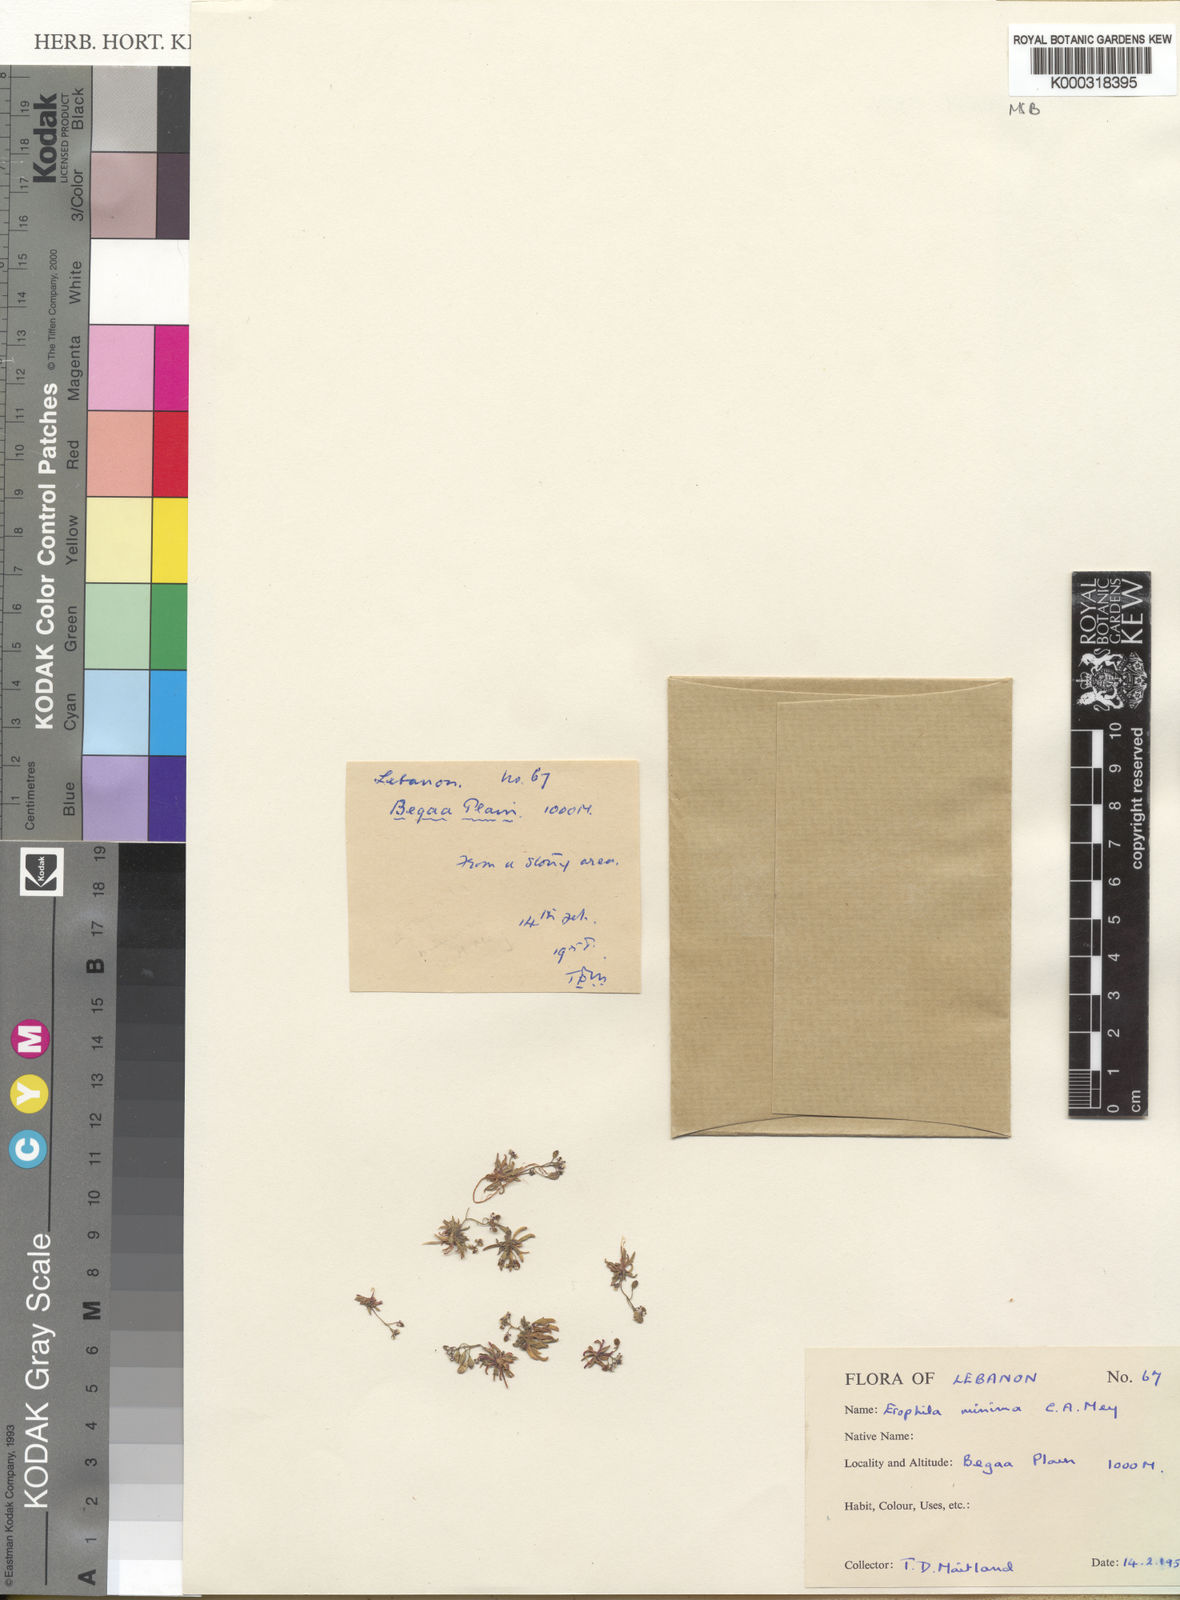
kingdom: Plantae
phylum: Tracheophyta
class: Magnoliopsida
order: Brassicales
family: Brassicaceae
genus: Draba
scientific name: Draba minima
